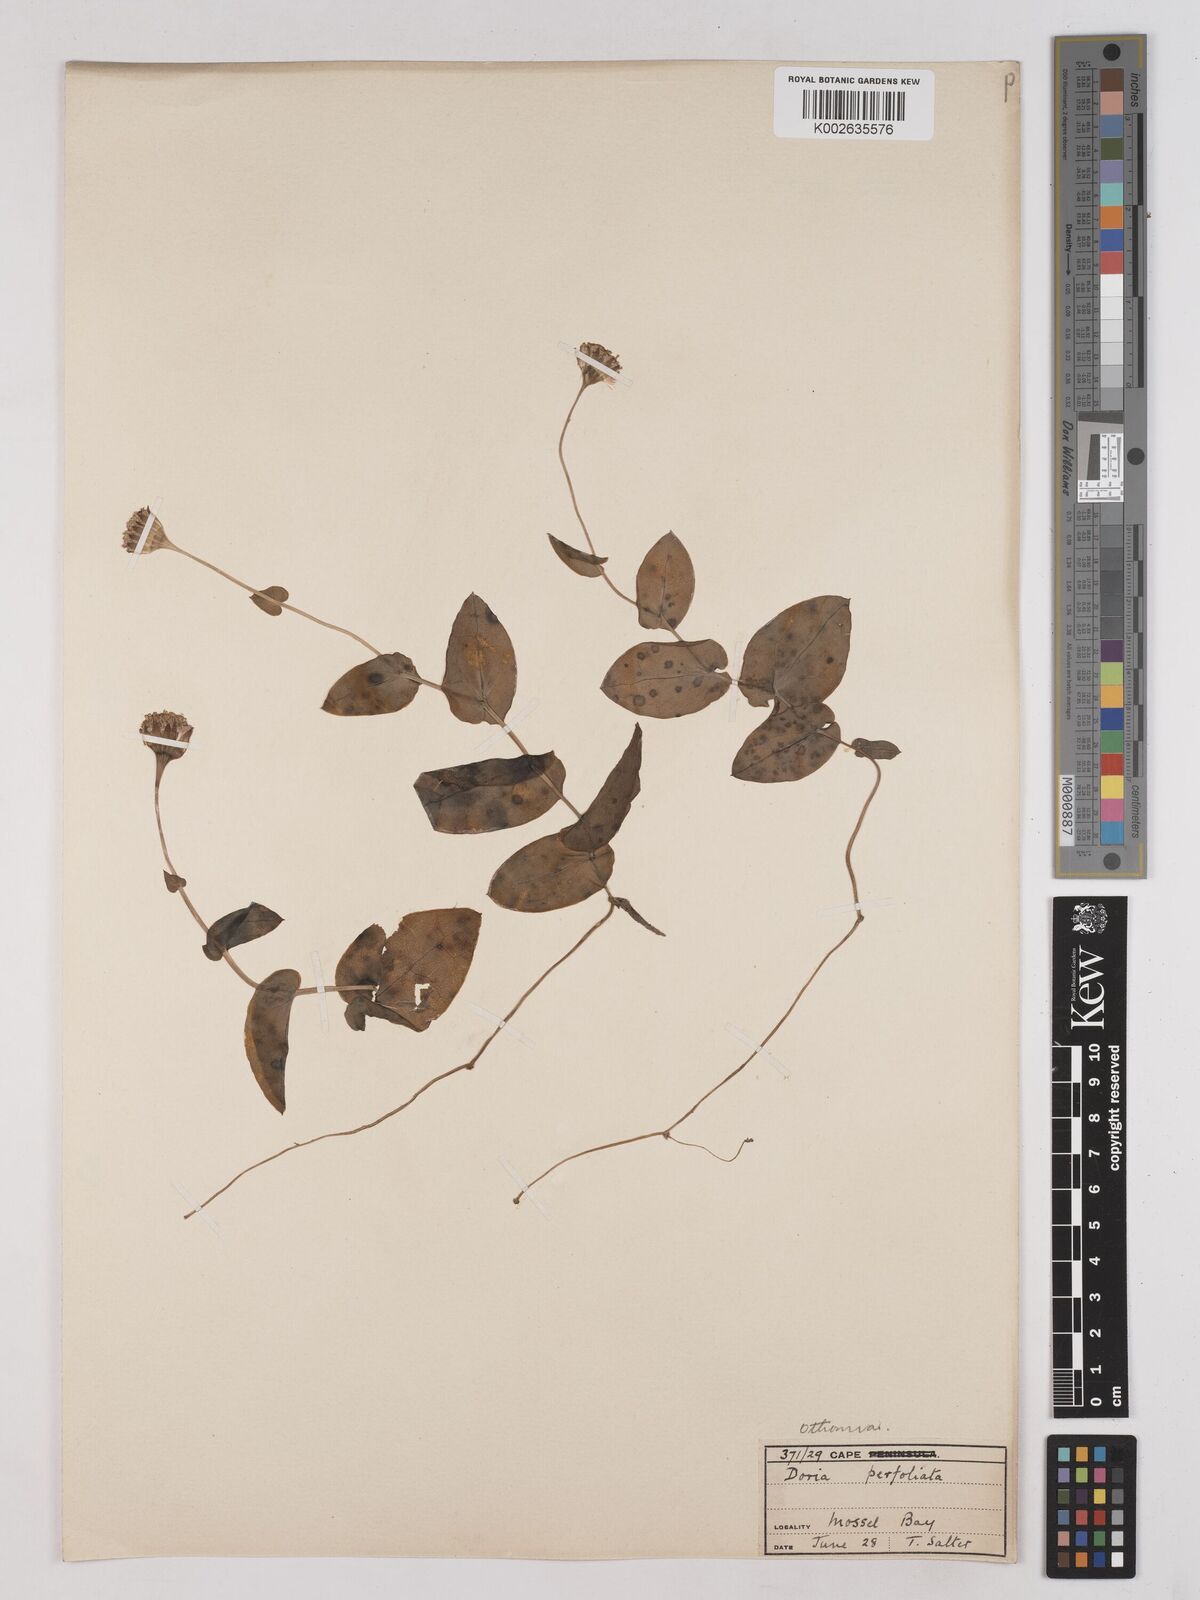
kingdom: Plantae
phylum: Tracheophyta
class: Magnoliopsida
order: Asterales
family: Asteraceae
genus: Othonna
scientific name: Othonna bulbosa
